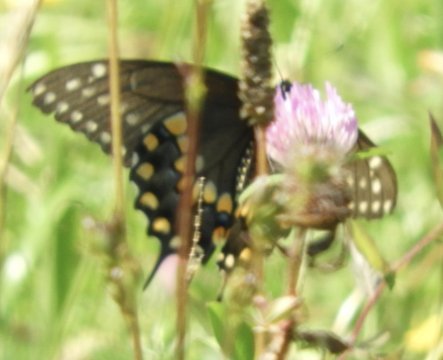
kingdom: Animalia
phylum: Arthropoda
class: Insecta
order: Lepidoptera
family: Papilionidae
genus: Papilio
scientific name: Papilio polyxenes
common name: Black Swallowtail
